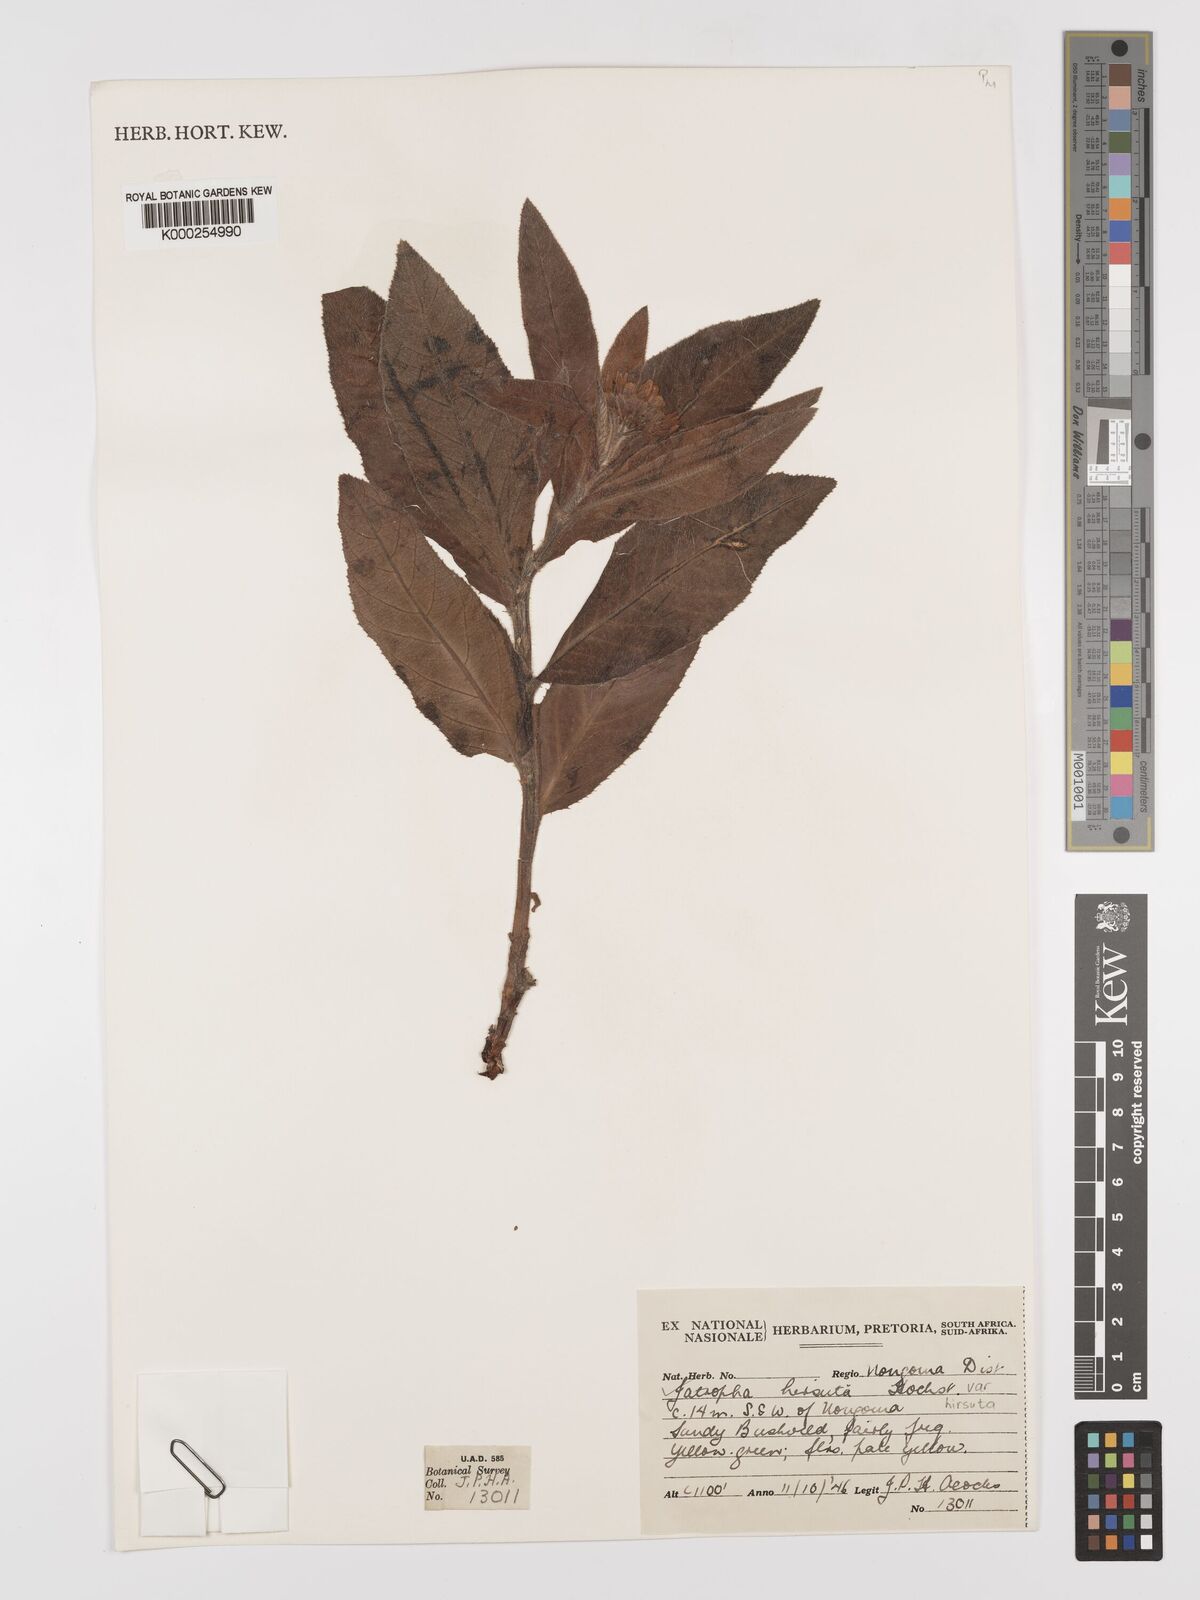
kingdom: Plantae
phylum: Tracheophyta
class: Magnoliopsida
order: Malpighiales
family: Euphorbiaceae
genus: Jatropha
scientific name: Jatropha hirsuta
